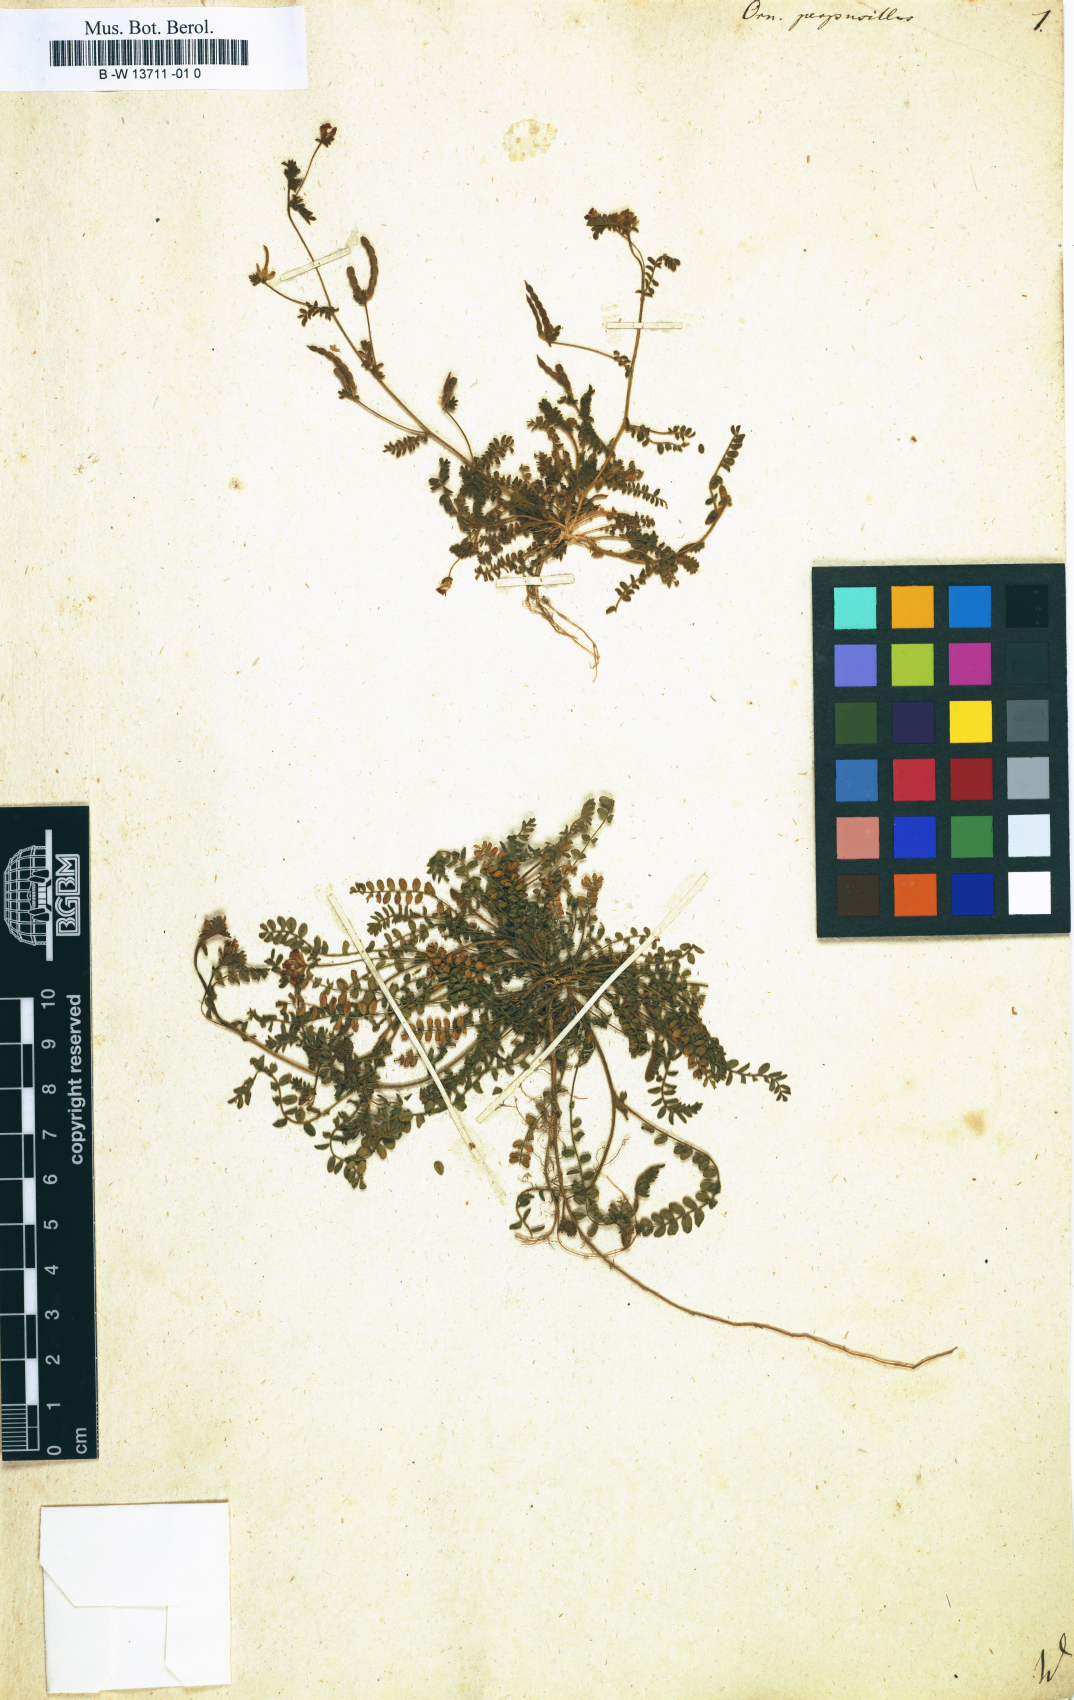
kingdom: Plantae
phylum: Tracheophyta
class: Magnoliopsida
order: Fabales
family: Fabaceae
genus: Ornithopus
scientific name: Ornithopus perpusillus
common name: Bird's-foot
